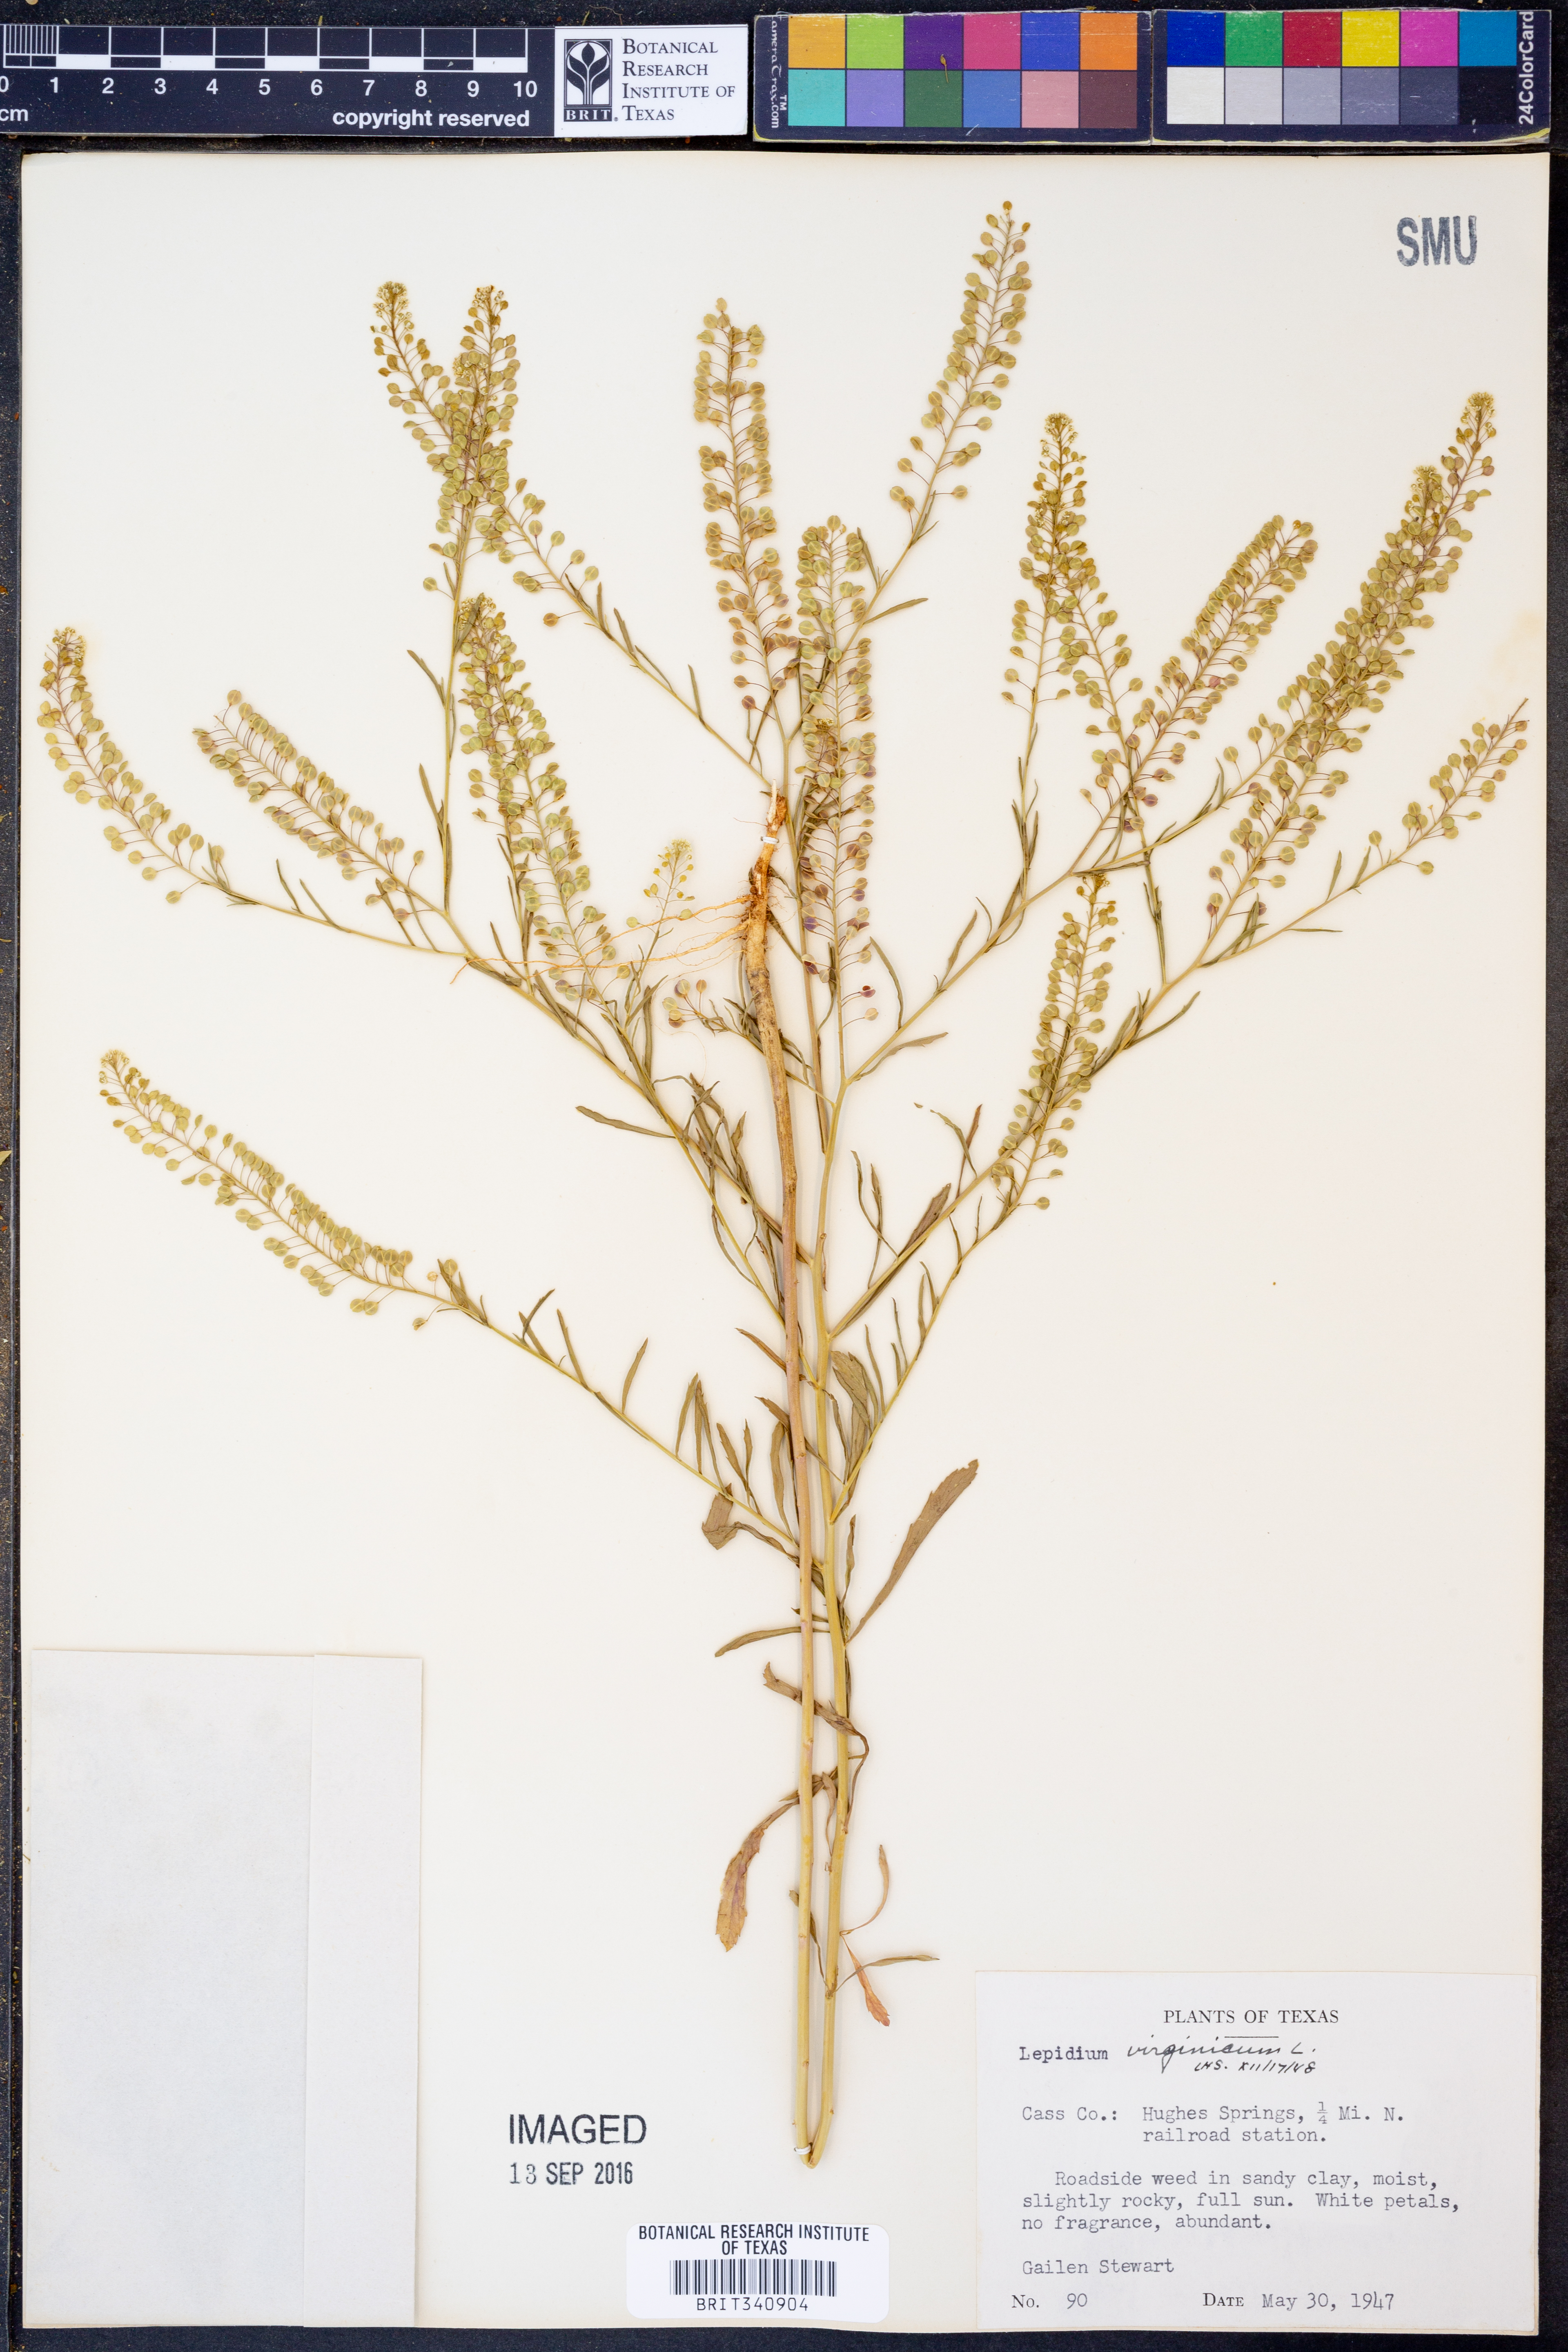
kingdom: Plantae
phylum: Tracheophyta
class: Magnoliopsida
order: Brassicales
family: Brassicaceae
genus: Lepidium
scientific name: Lepidium virginicum
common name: Least pepperwort
